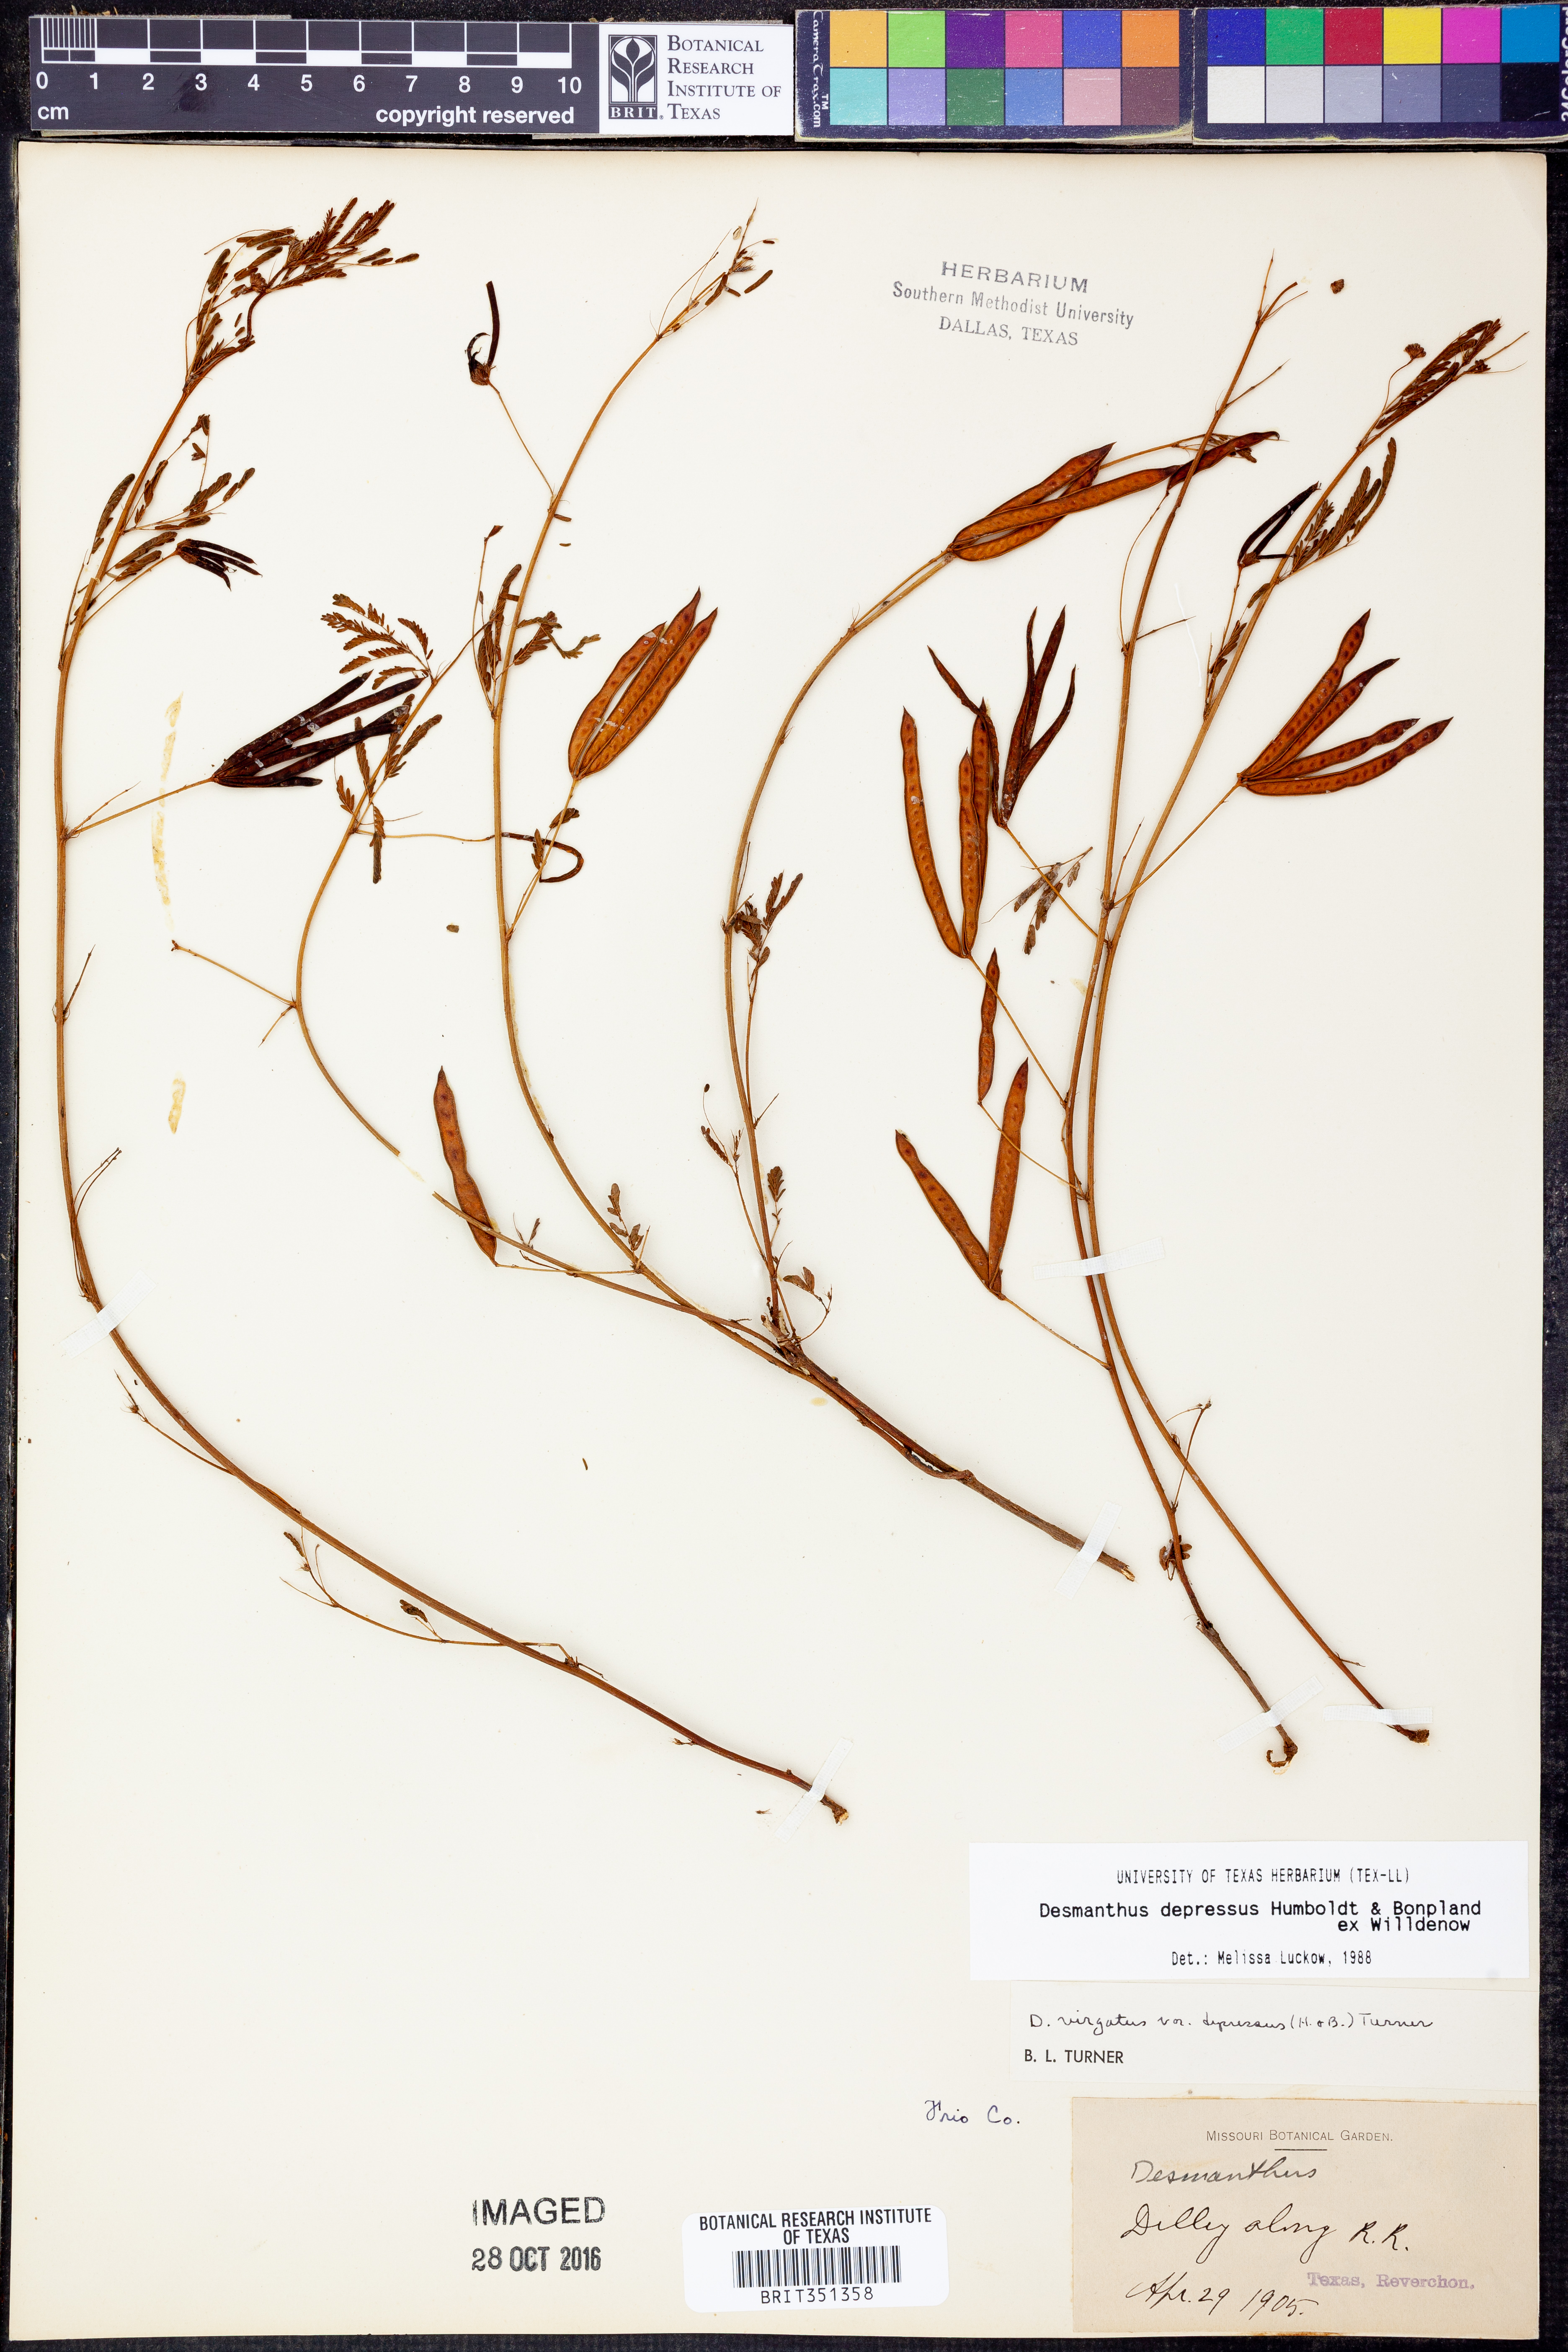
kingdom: Plantae
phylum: Tracheophyta
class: Magnoliopsida
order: Fabales
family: Fabaceae
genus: Desmanthus
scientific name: Desmanthus virgatus
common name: Wild tantan
